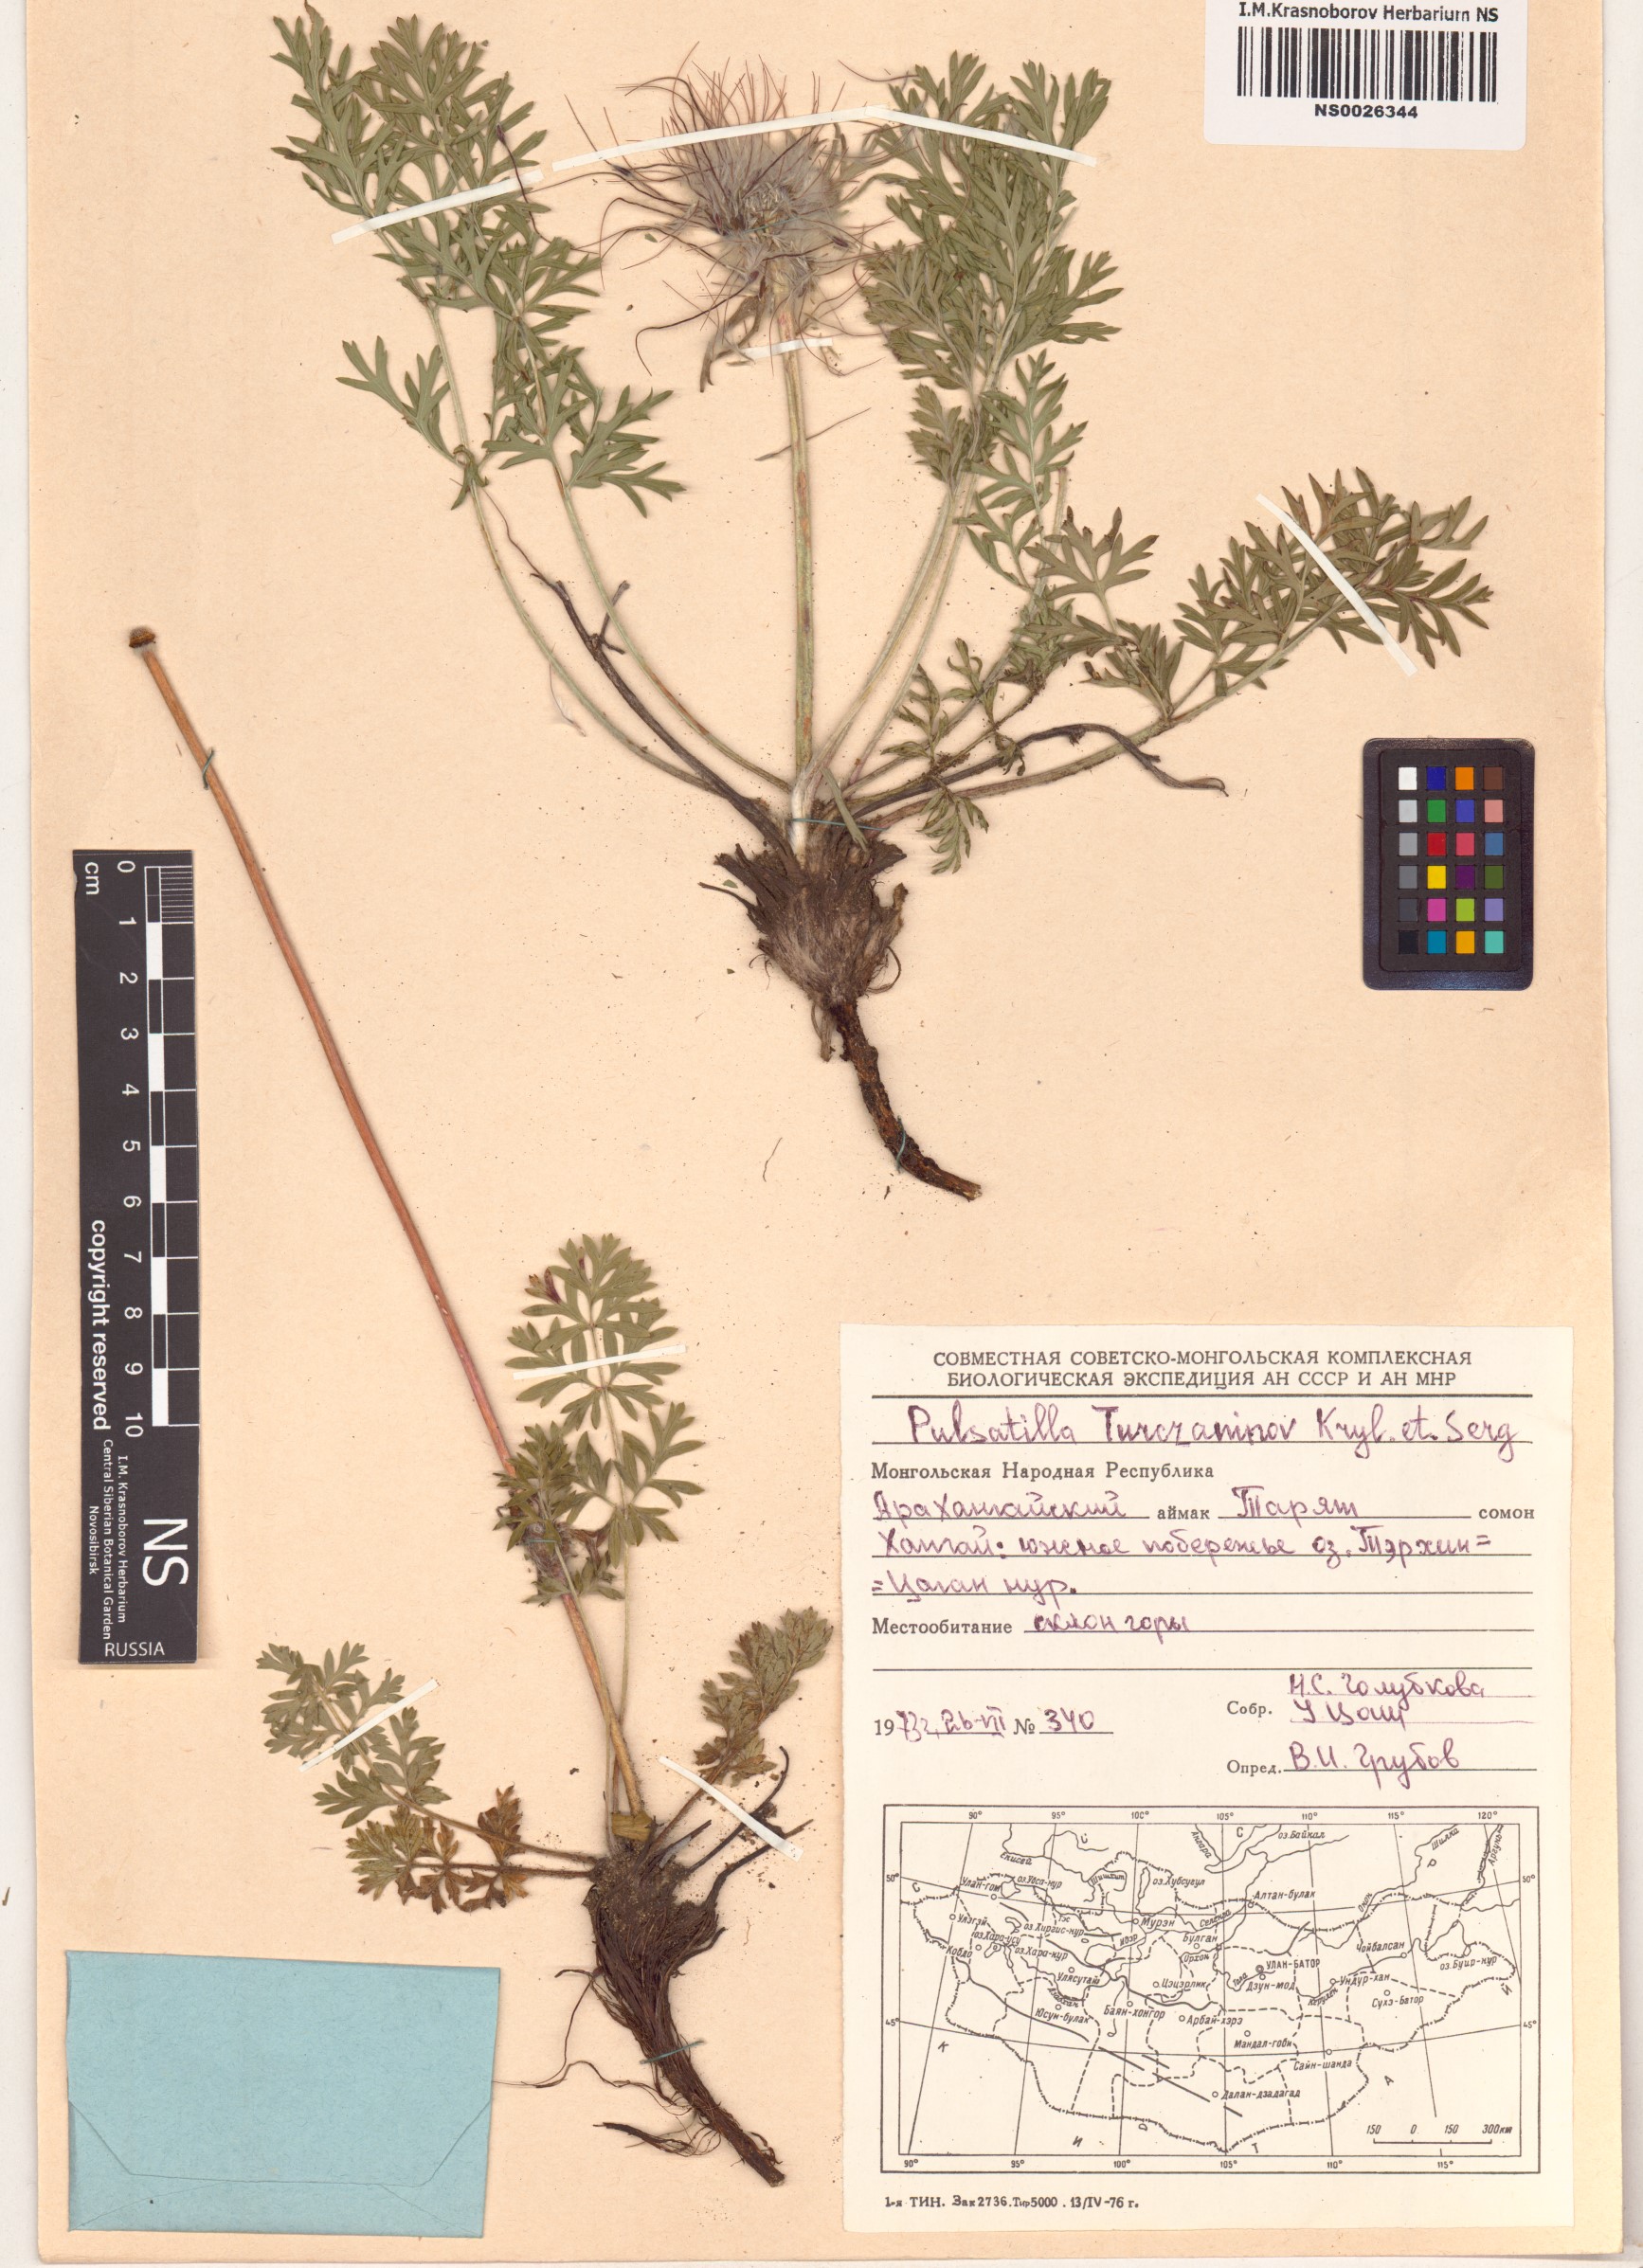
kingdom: Plantae
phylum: Tracheophyta
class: Magnoliopsida
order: Ranunculales
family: Ranunculaceae
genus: Pulsatilla
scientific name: Pulsatilla turczaninovii
